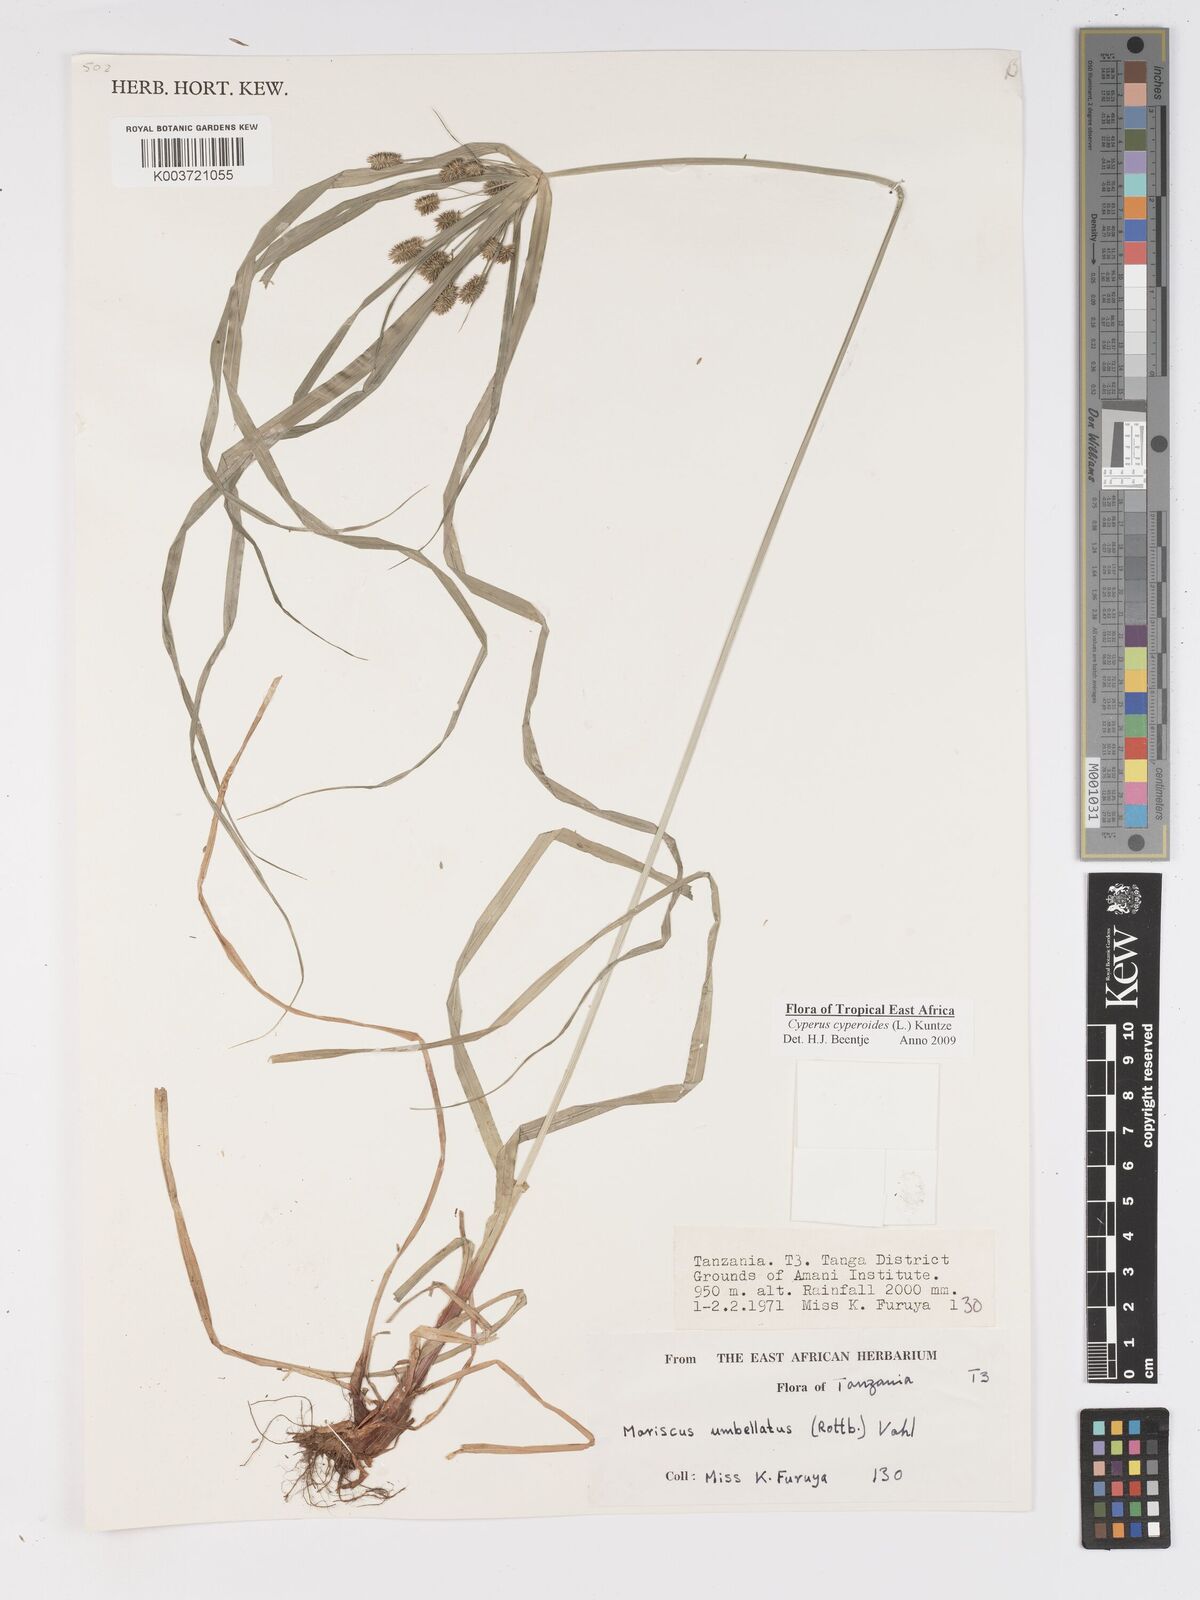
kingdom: Plantae
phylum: Tracheophyta
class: Liliopsida
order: Poales
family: Cyperaceae
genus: Cyperus
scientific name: Cyperus cyperoides
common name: Pacific island flat sedge
